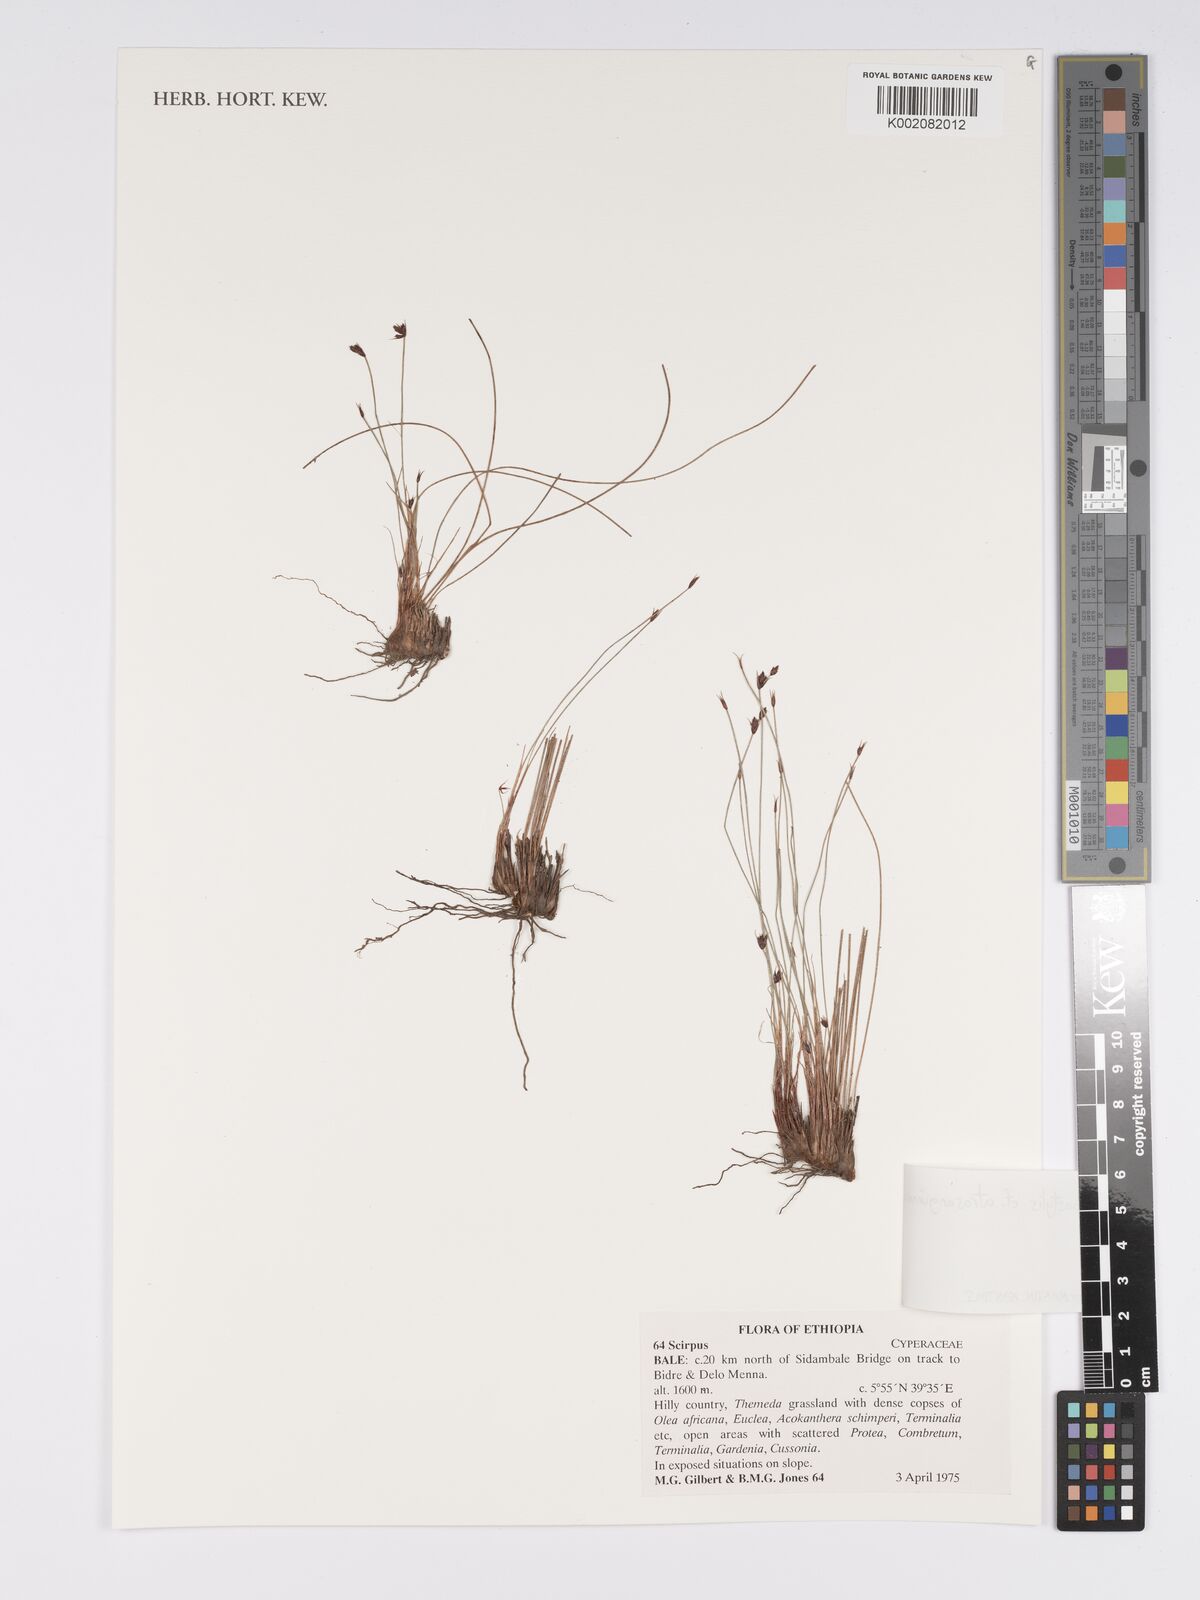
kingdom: Plantae
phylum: Tracheophyta
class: Liliopsida
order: Poales
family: Cyperaceae
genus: Bulbostylis
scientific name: Bulbostylis
